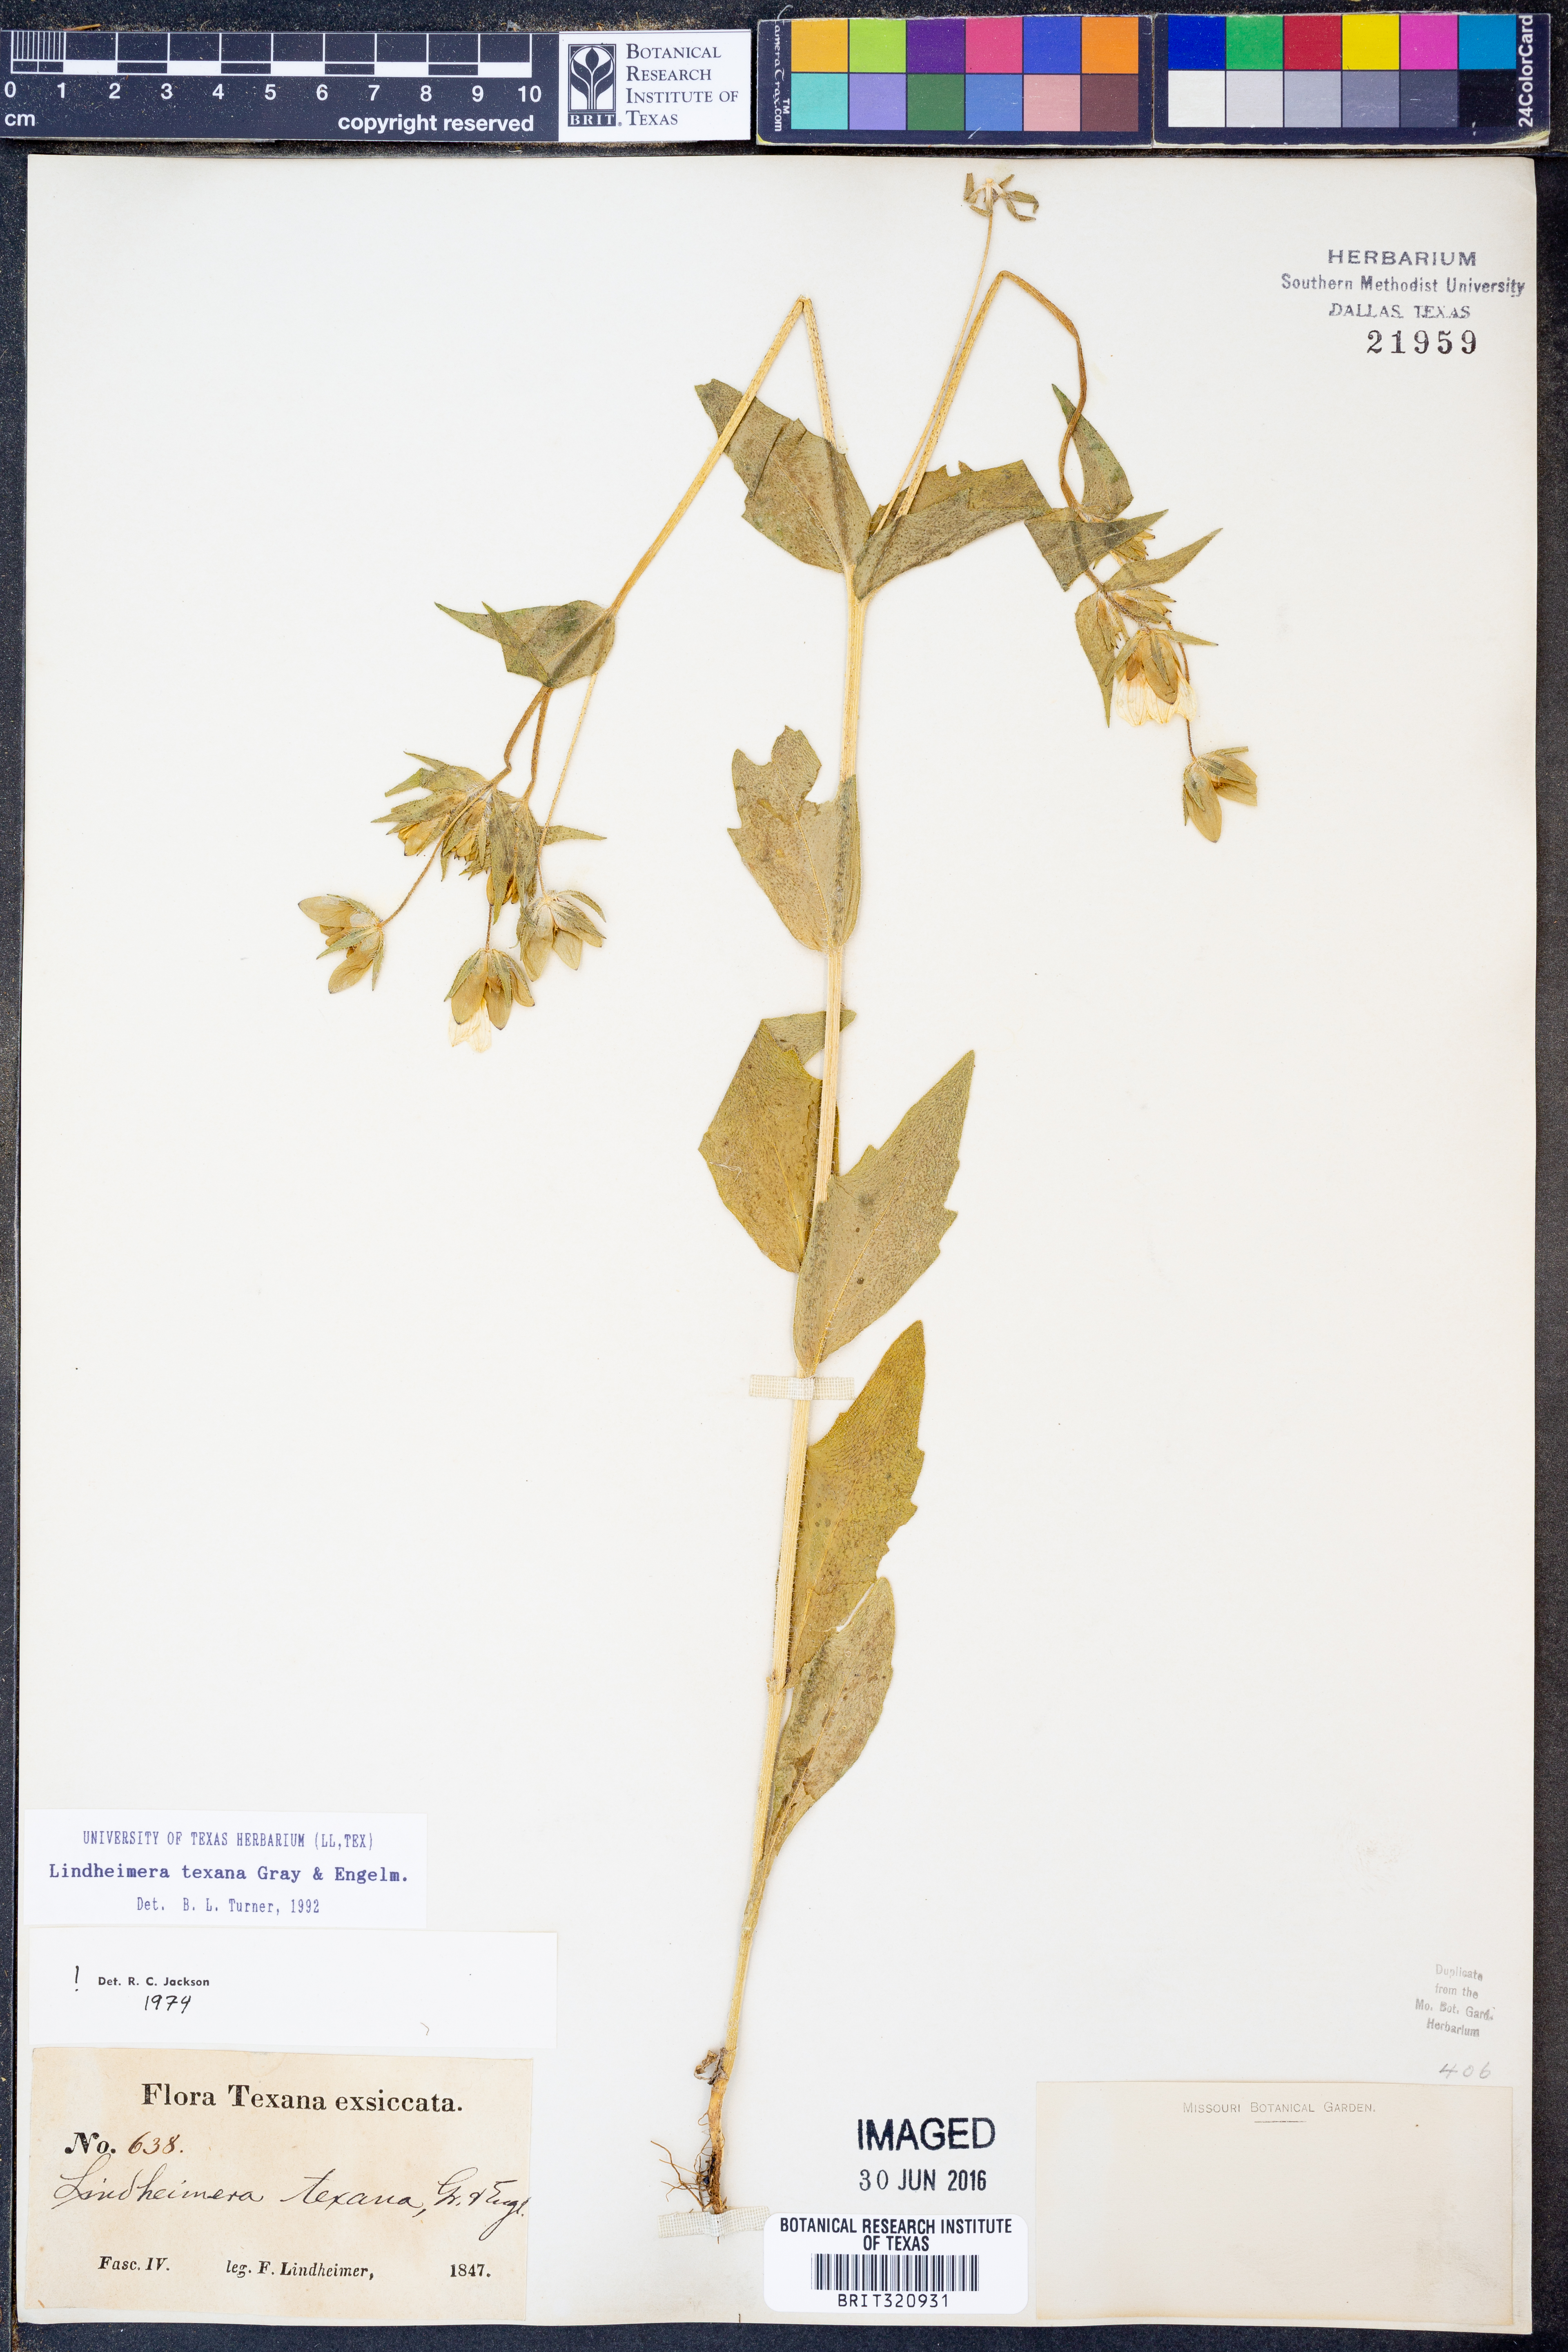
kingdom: Plantae
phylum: Tracheophyta
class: Magnoliopsida
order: Asterales
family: Asteraceae
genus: Lindheimera
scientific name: Lindheimera texana
